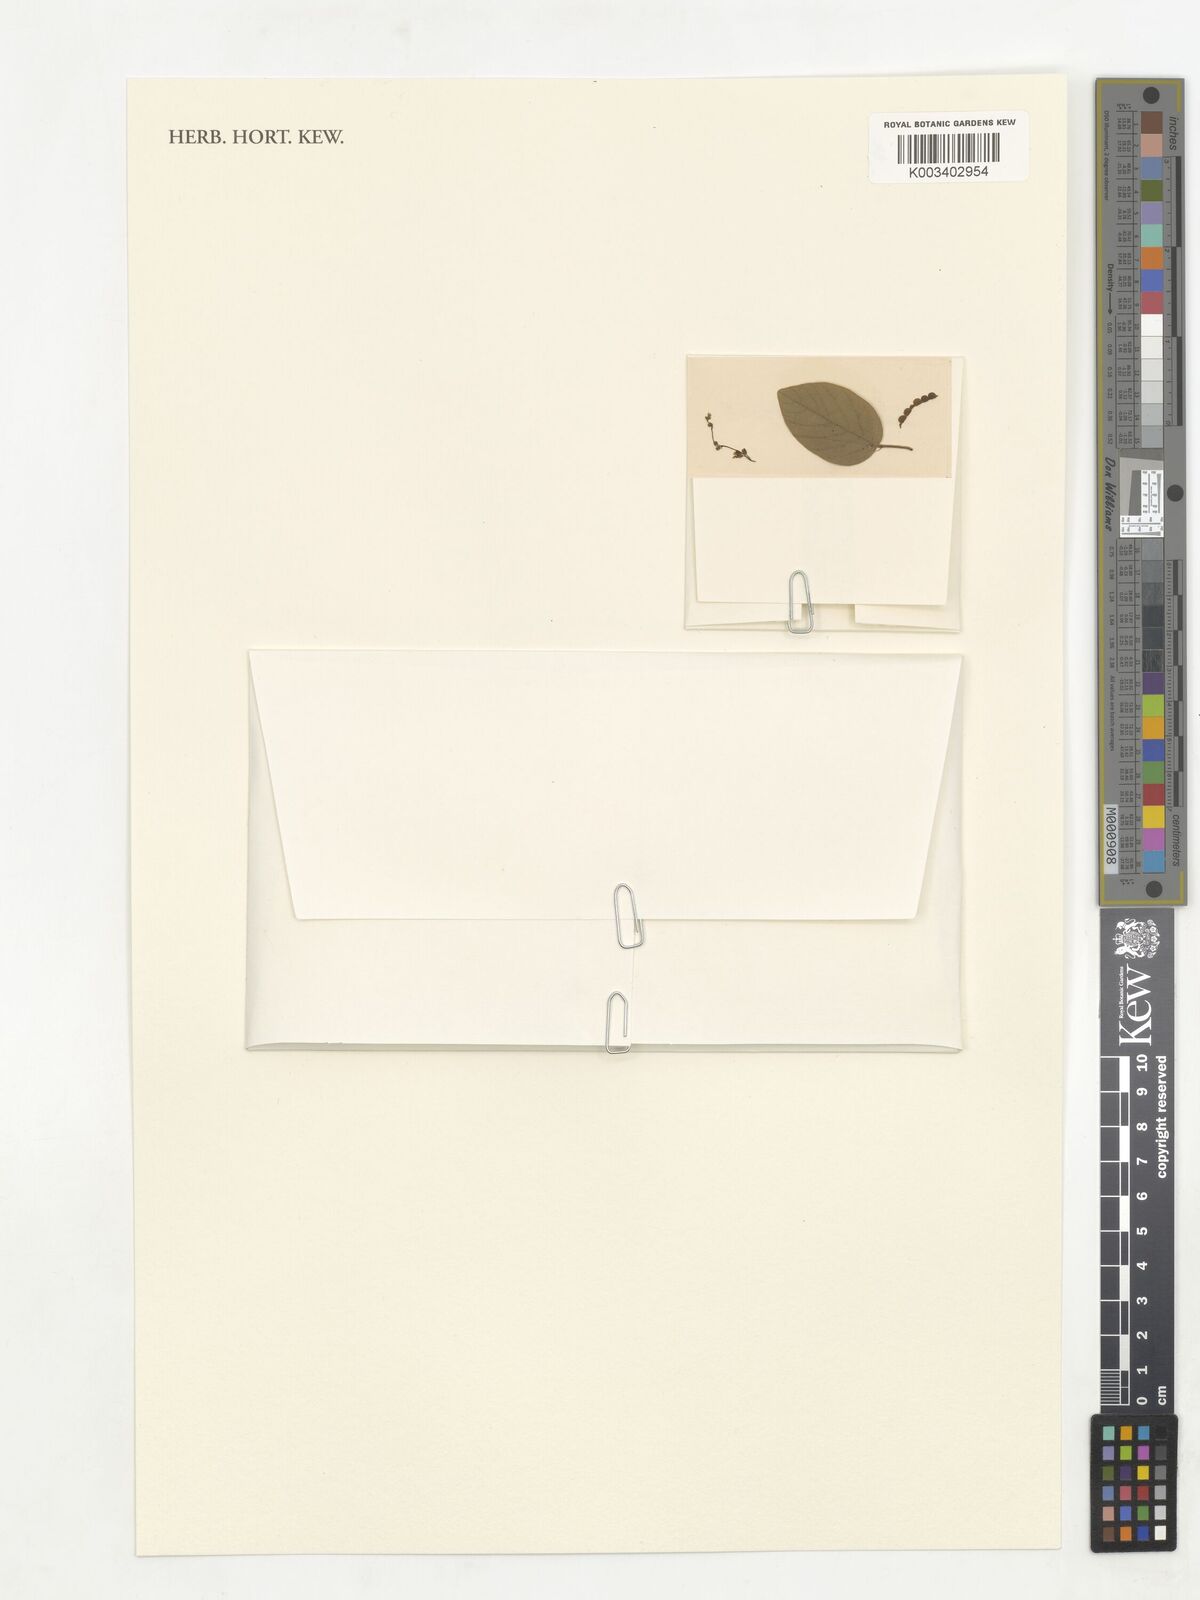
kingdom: Plantae
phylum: Tracheophyta
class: Magnoliopsida
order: Fabales
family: Fabaceae
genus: Pleurolobus
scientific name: Pleurolobus gangeticus
